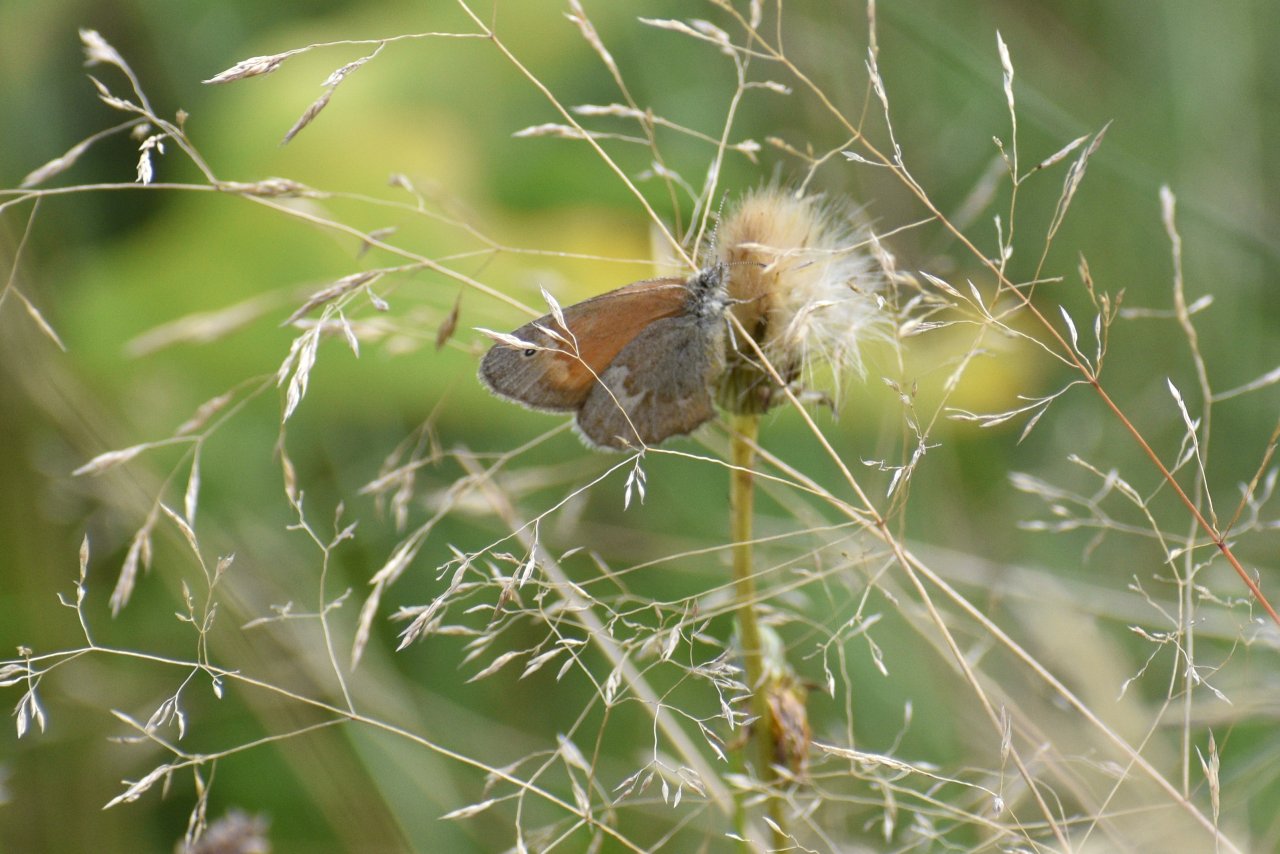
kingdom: Animalia
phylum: Arthropoda
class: Insecta
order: Lepidoptera
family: Nymphalidae
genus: Coenonympha
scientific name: Coenonympha tullia
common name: Large Heath
